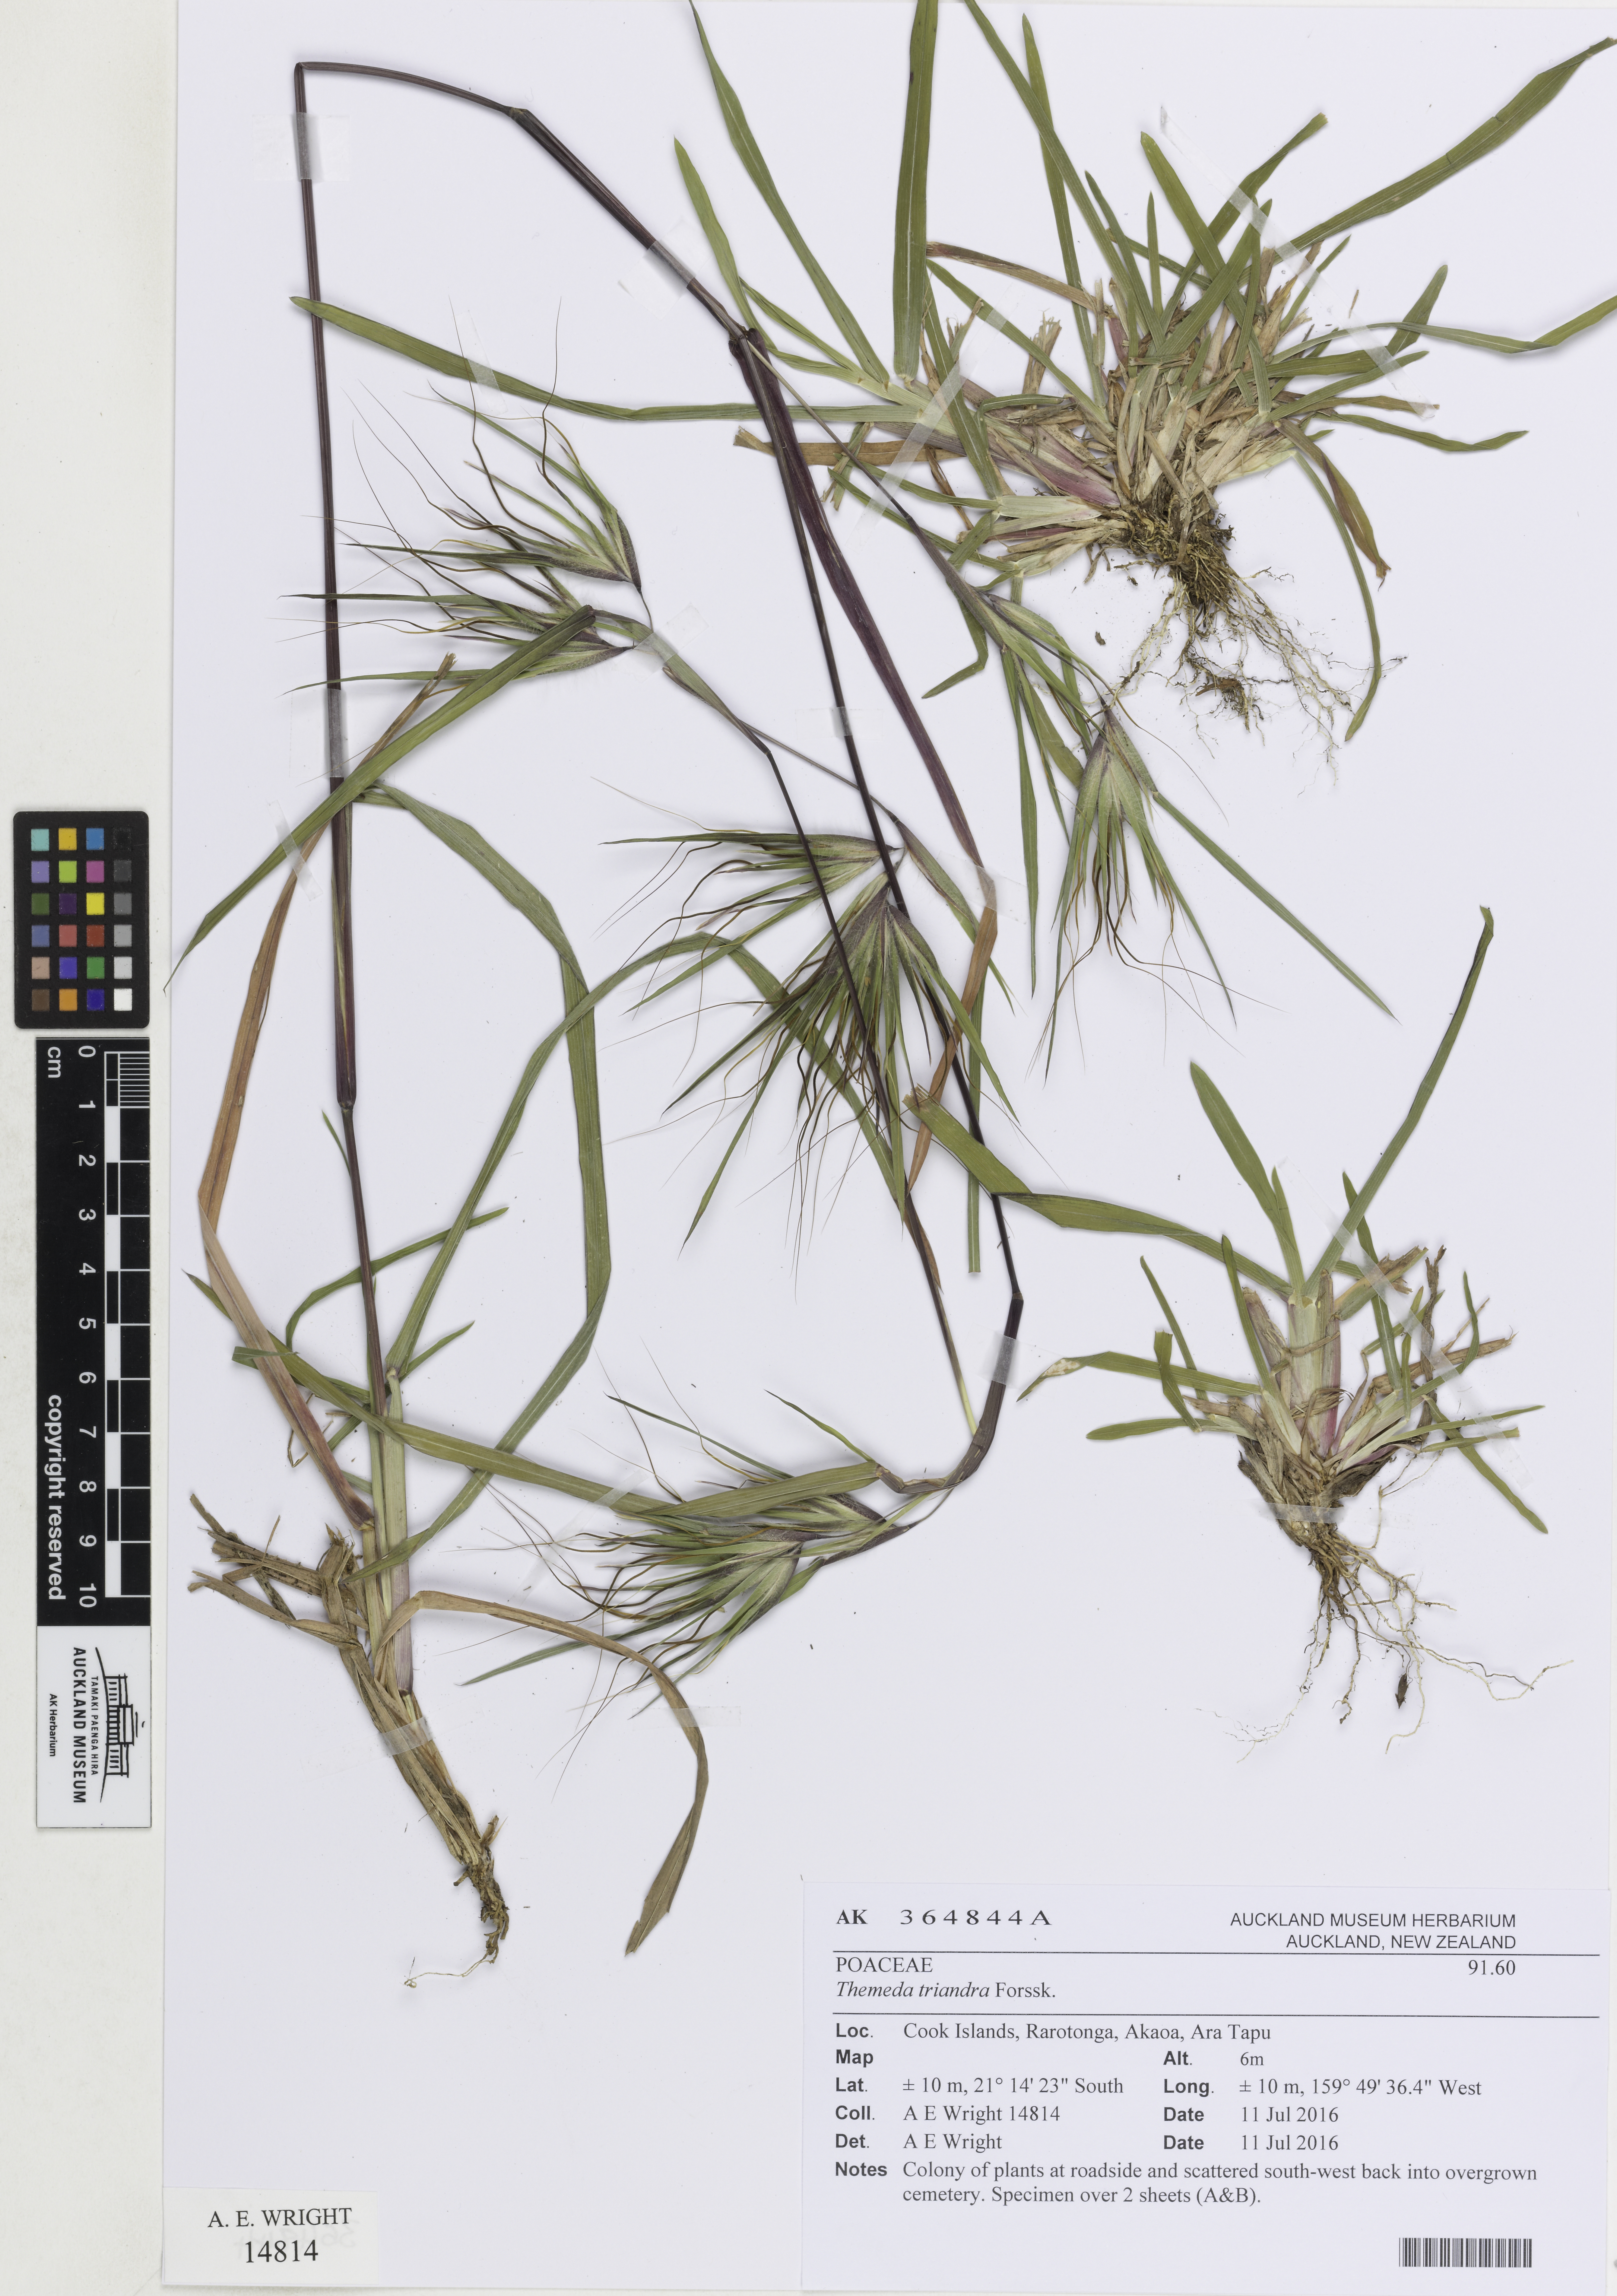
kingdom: Plantae
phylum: Tracheophyta
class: Liliopsida
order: Poales
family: Poaceae
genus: Themeda
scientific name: Themeda arguens
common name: Christmas grass
